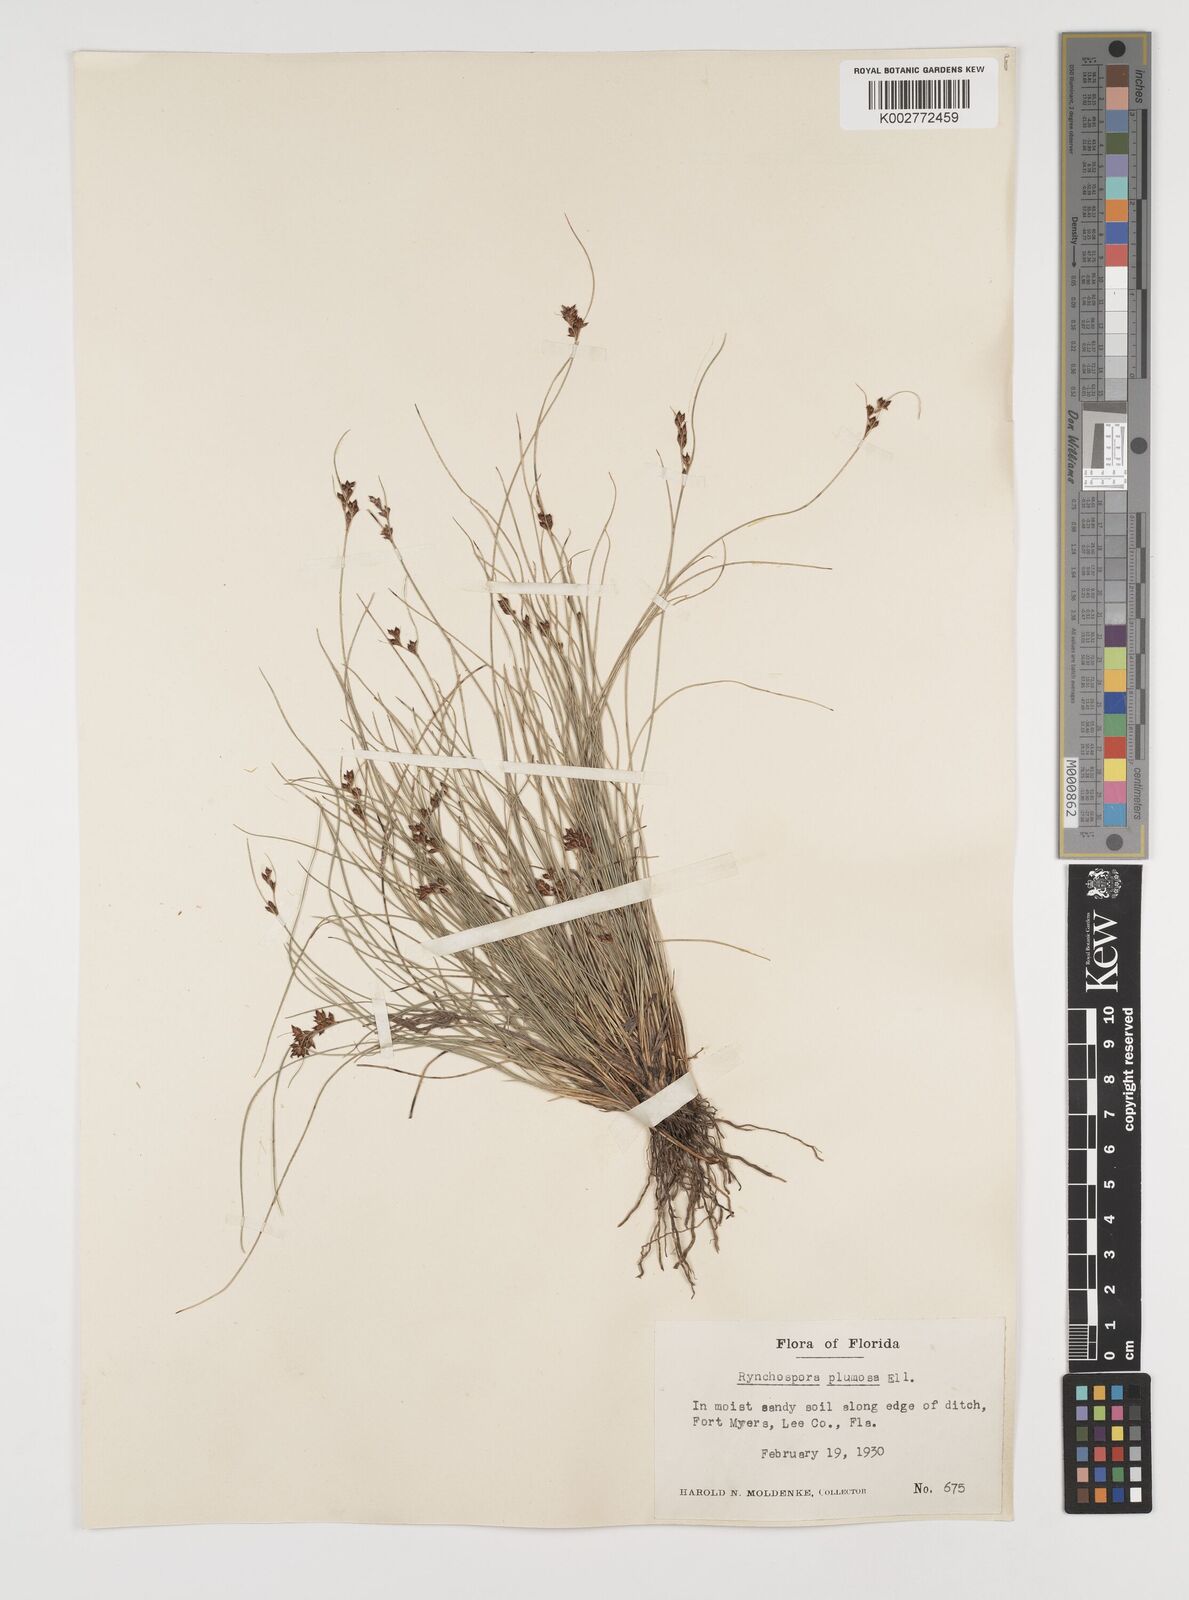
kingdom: Plantae
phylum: Tracheophyta
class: Liliopsida
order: Poales
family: Cyperaceae
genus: Rhynchospora
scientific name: Rhynchospora plumosa
